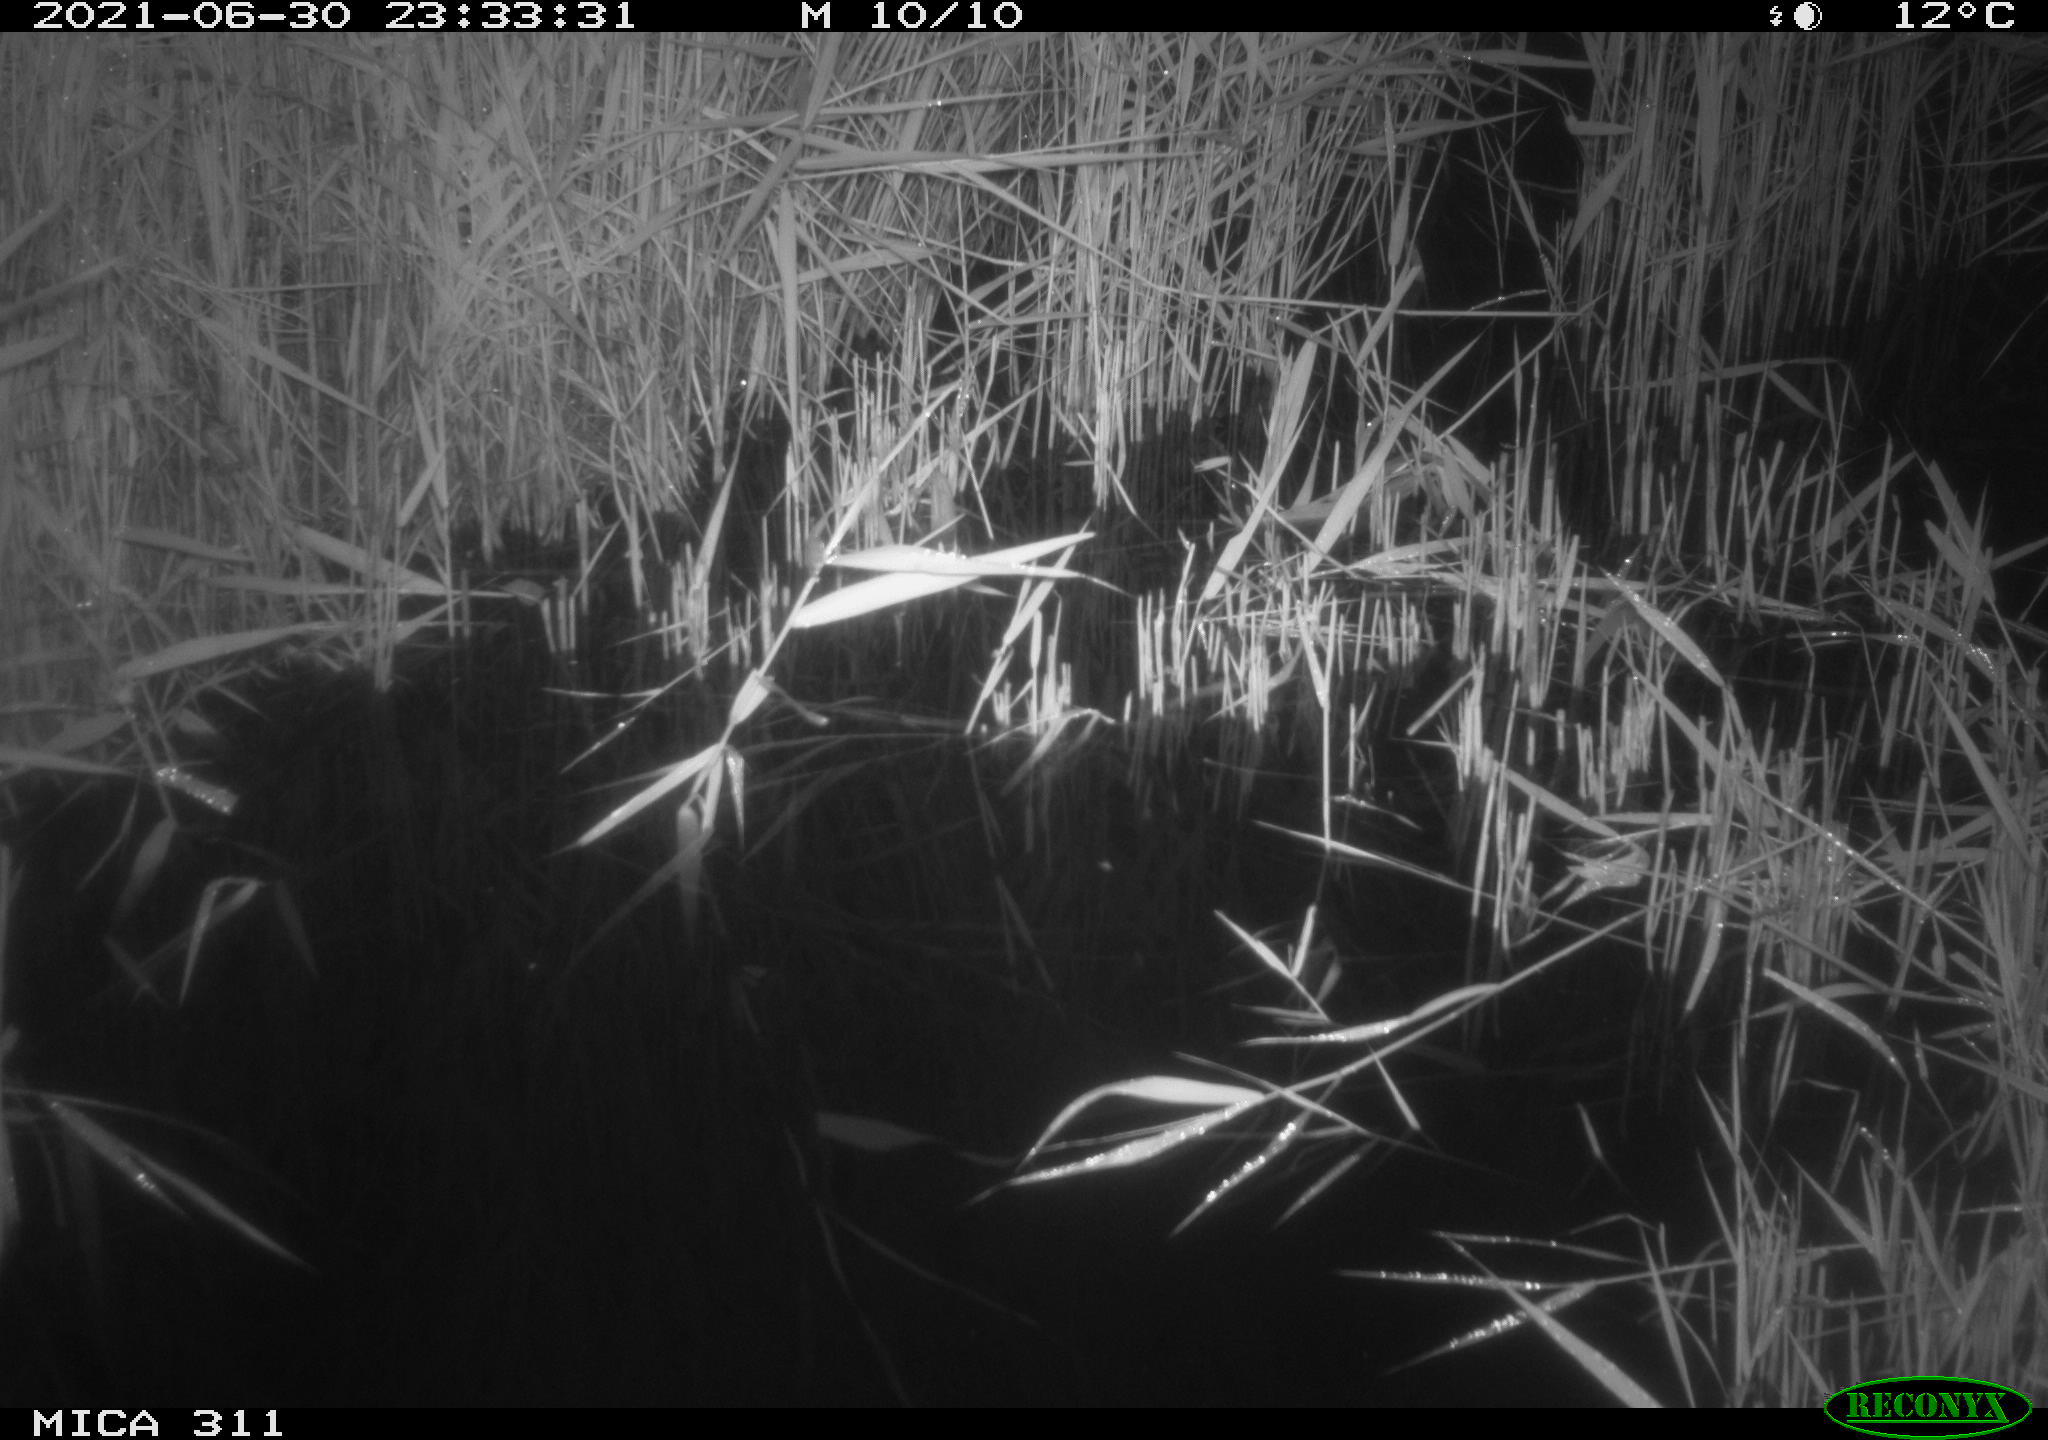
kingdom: Animalia
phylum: Chordata
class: Mammalia
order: Rodentia
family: Muridae
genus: Rattus
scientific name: Rattus norvegicus
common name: Brown rat
